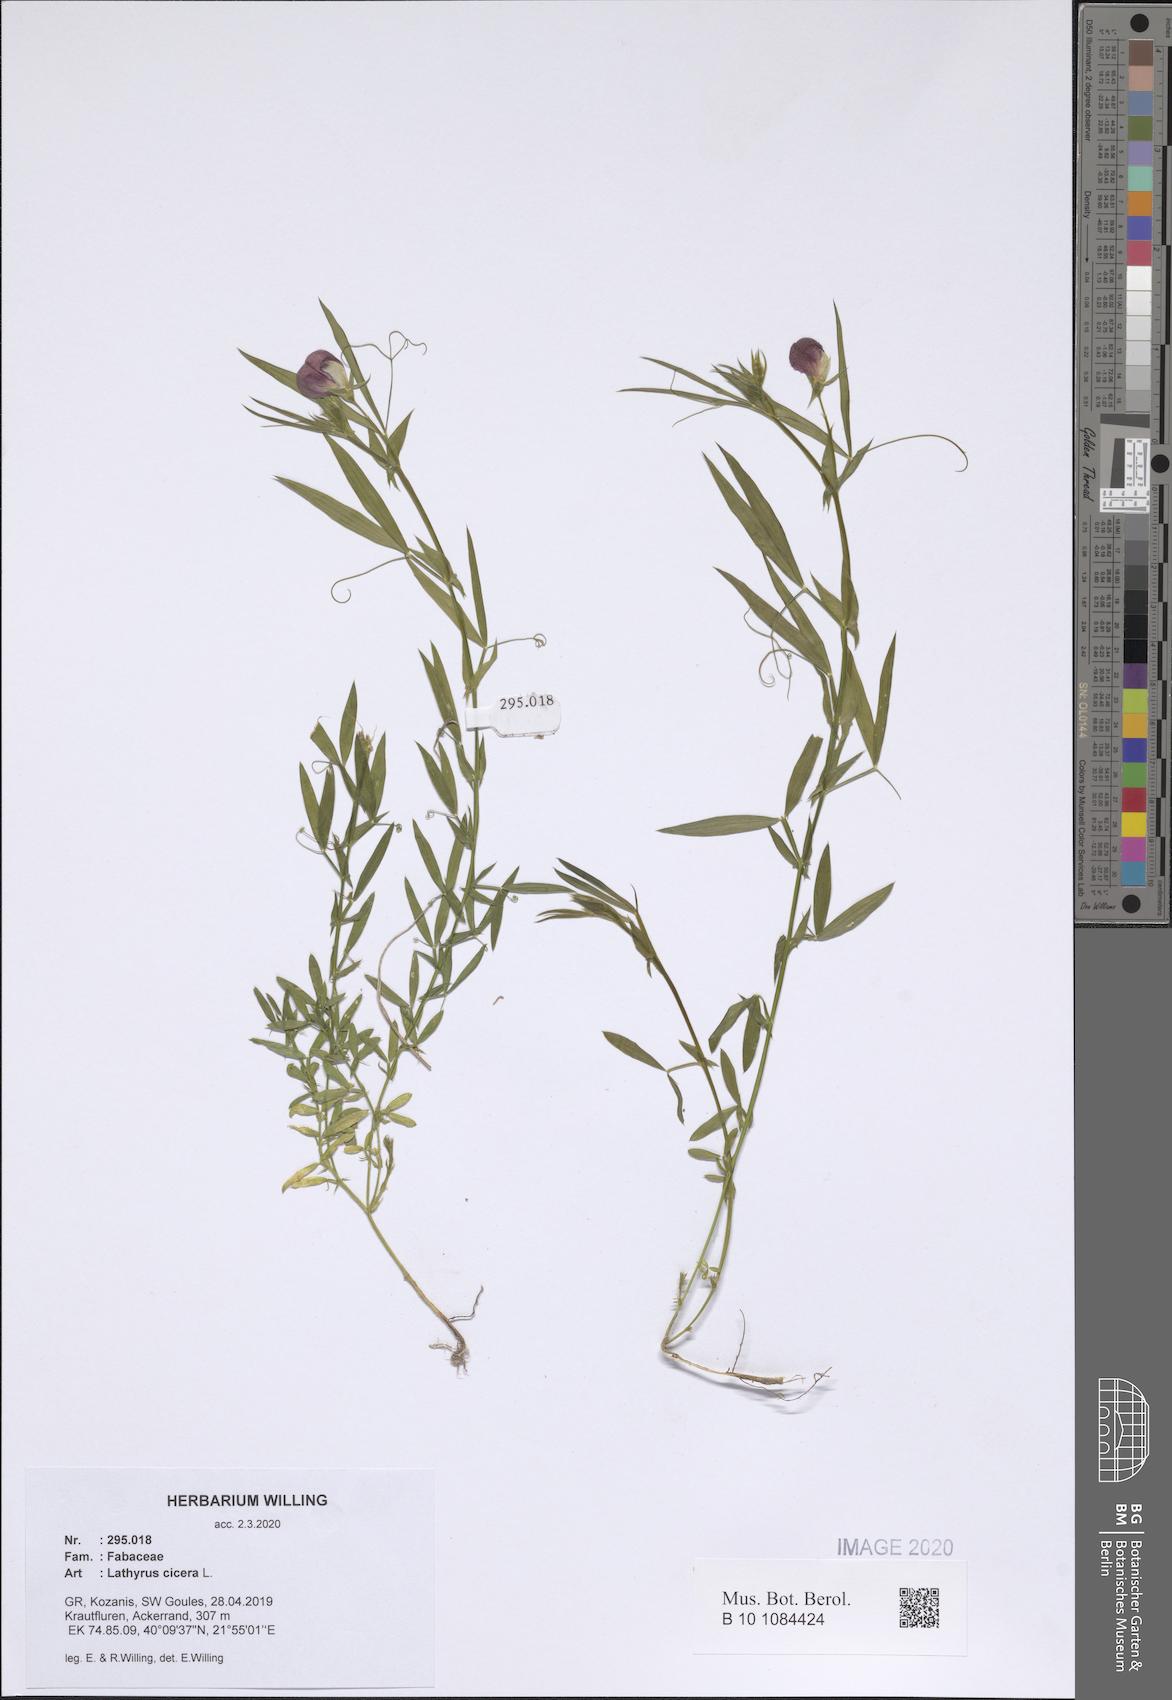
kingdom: Plantae
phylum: Tracheophyta
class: Magnoliopsida
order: Fabales
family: Fabaceae
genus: Lathyrus
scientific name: Lathyrus cicera
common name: Red vetchling
